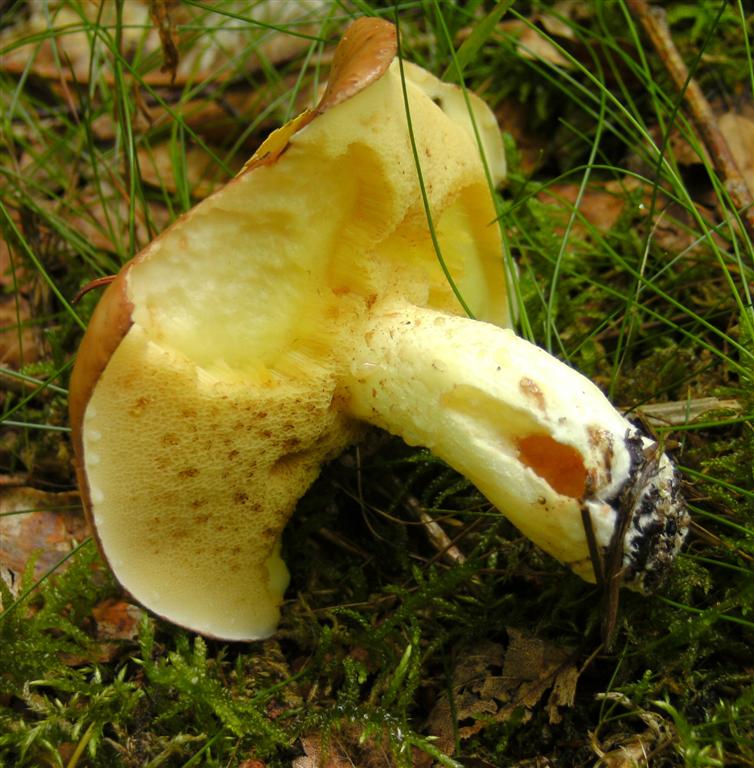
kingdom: Fungi
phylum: Basidiomycota
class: Agaricomycetes
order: Boletales
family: Suillaceae
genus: Suillus
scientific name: Suillus granulatus
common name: kornet slimrørhat
